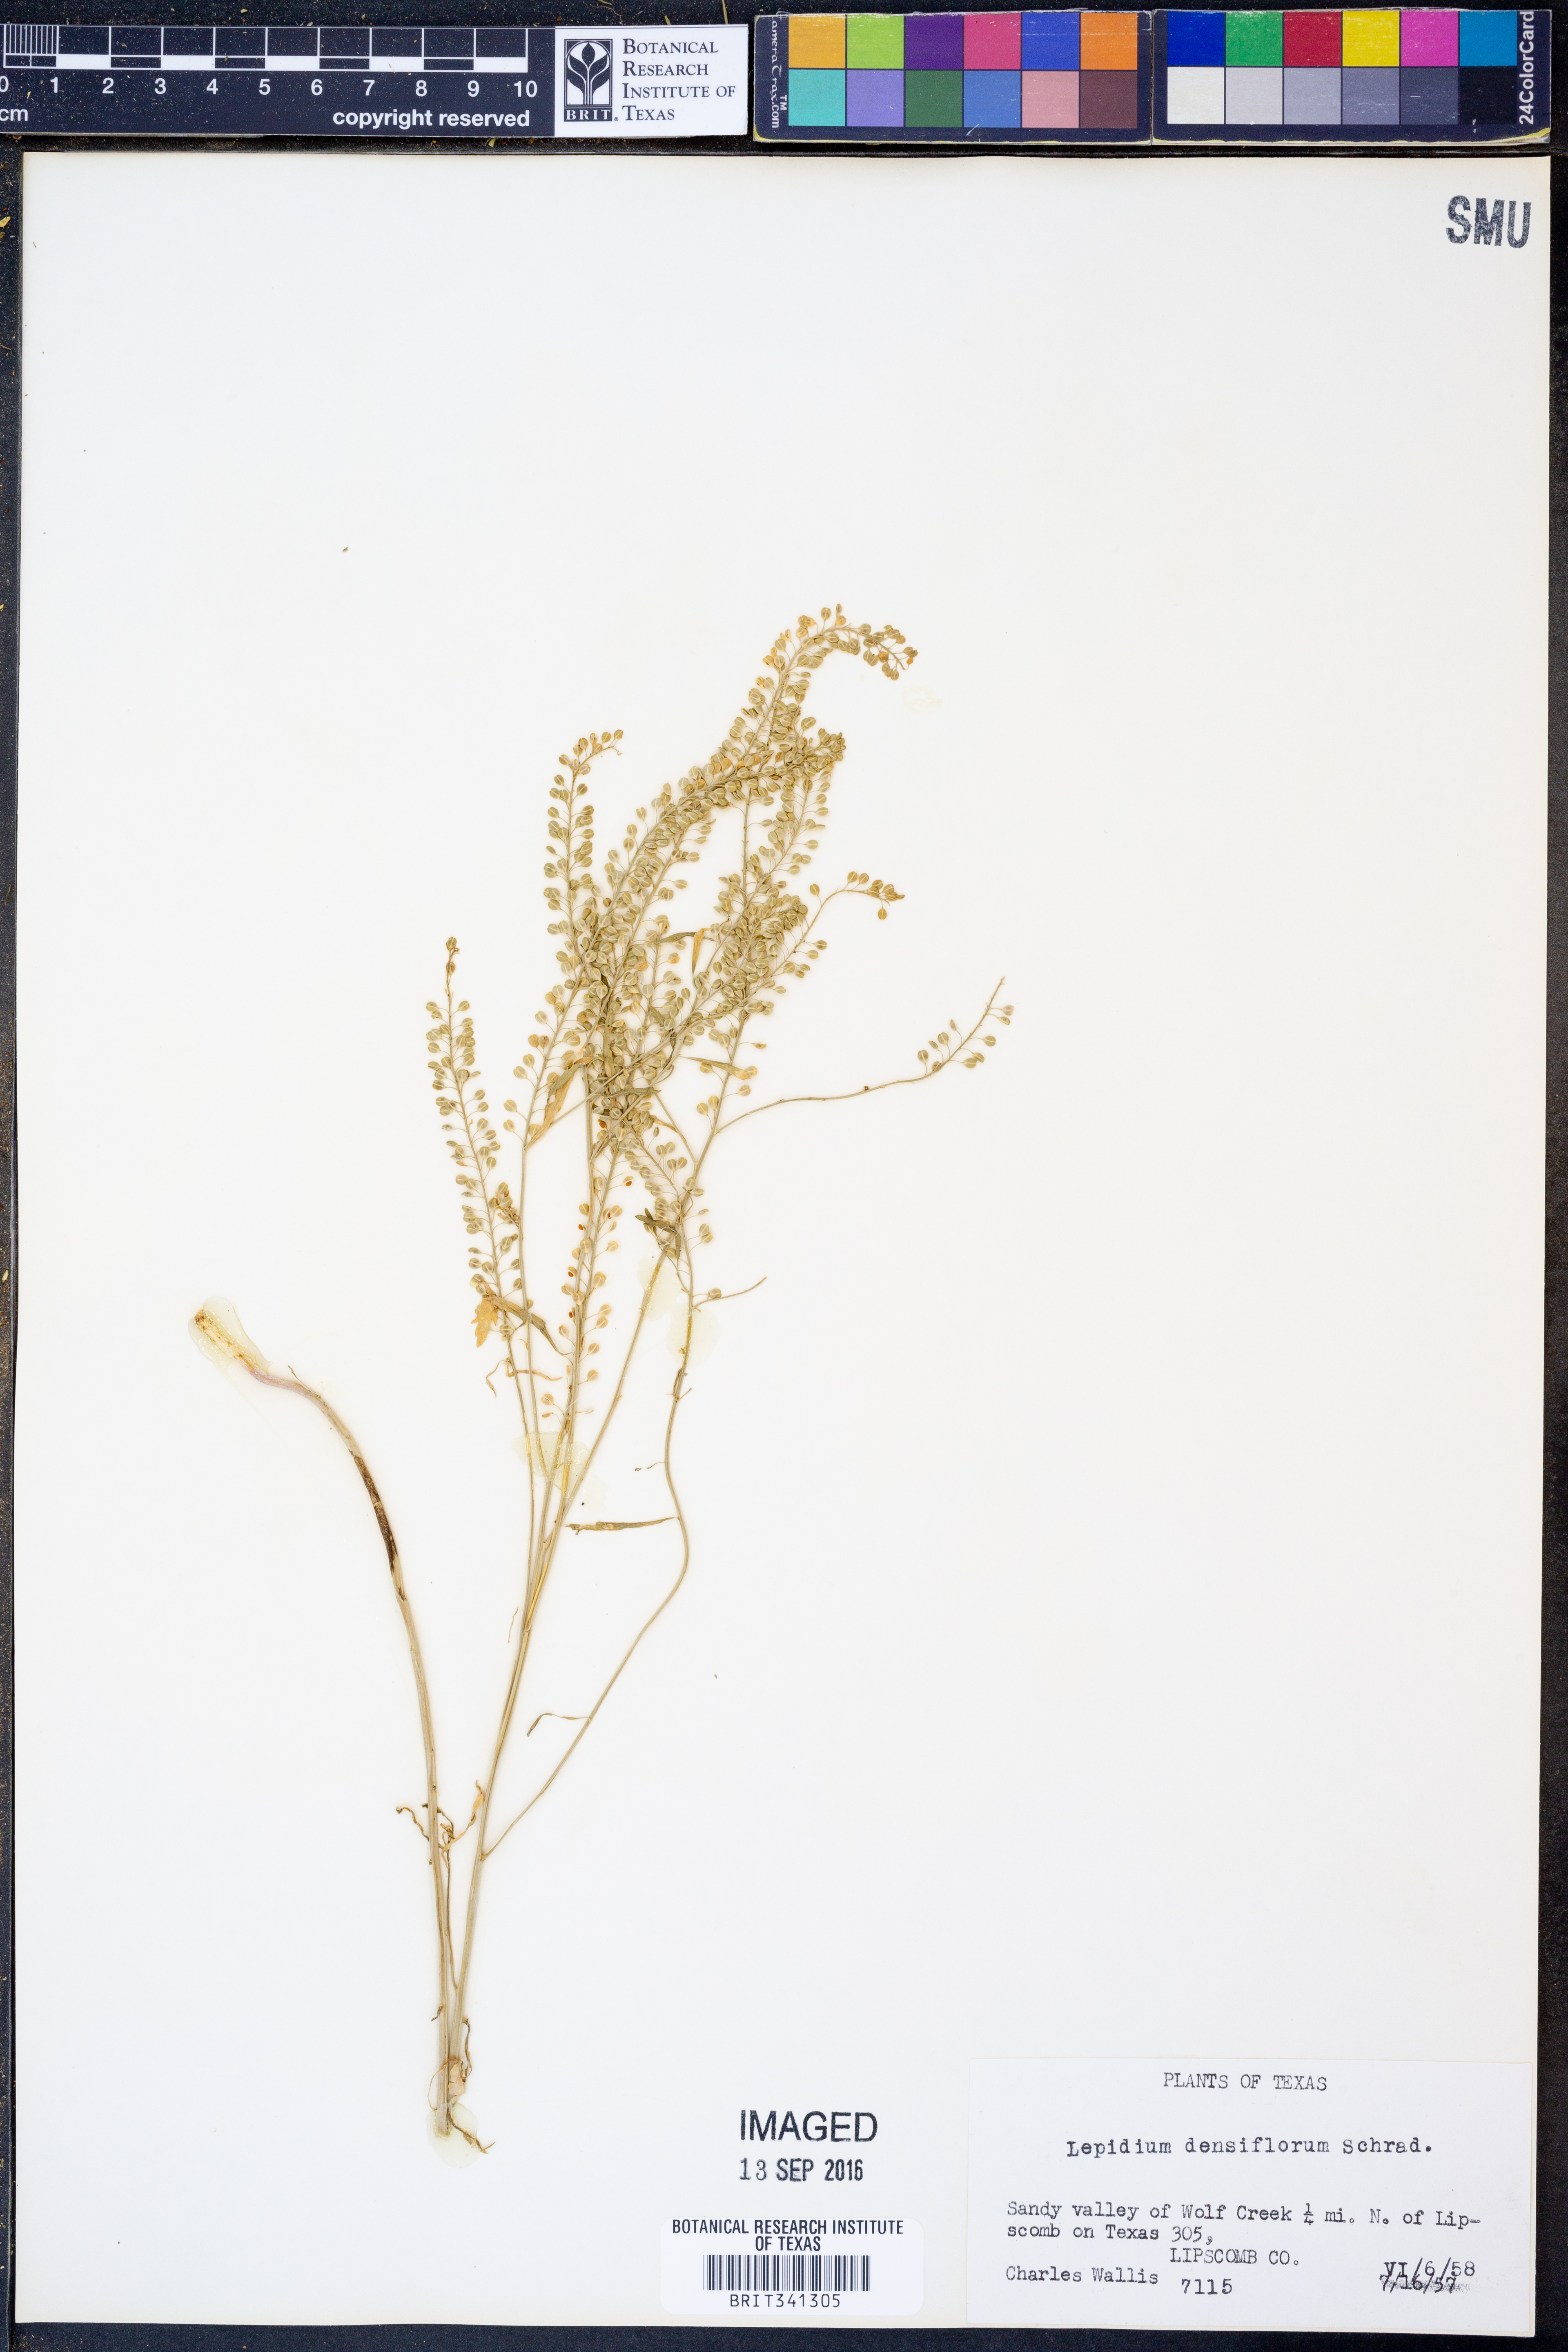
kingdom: Plantae
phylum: Tracheophyta
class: Magnoliopsida
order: Brassicales
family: Brassicaceae
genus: Lepidium
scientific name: Lepidium densiflorum
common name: Miner's pepperwort
